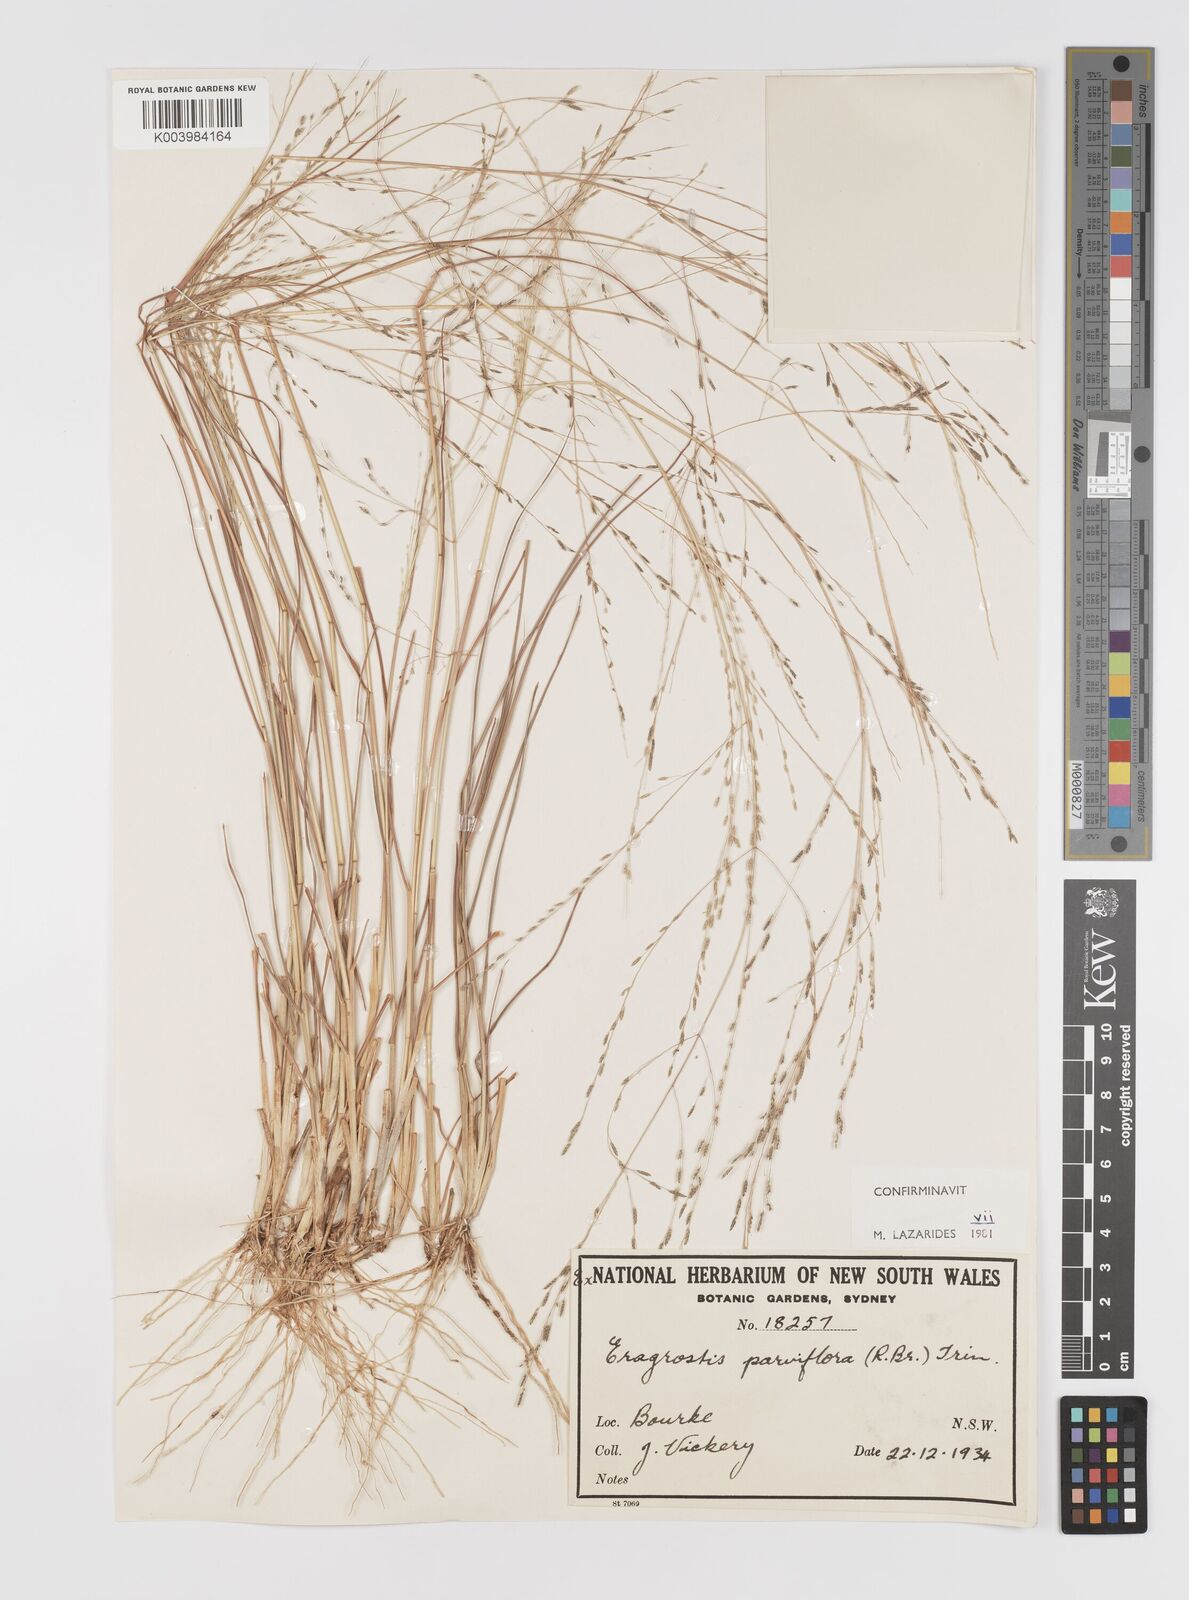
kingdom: Plantae
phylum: Tracheophyta
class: Liliopsida
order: Poales
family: Poaceae
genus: Eragrostis
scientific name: Eragrostis parviflora
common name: Weeping love-grass
